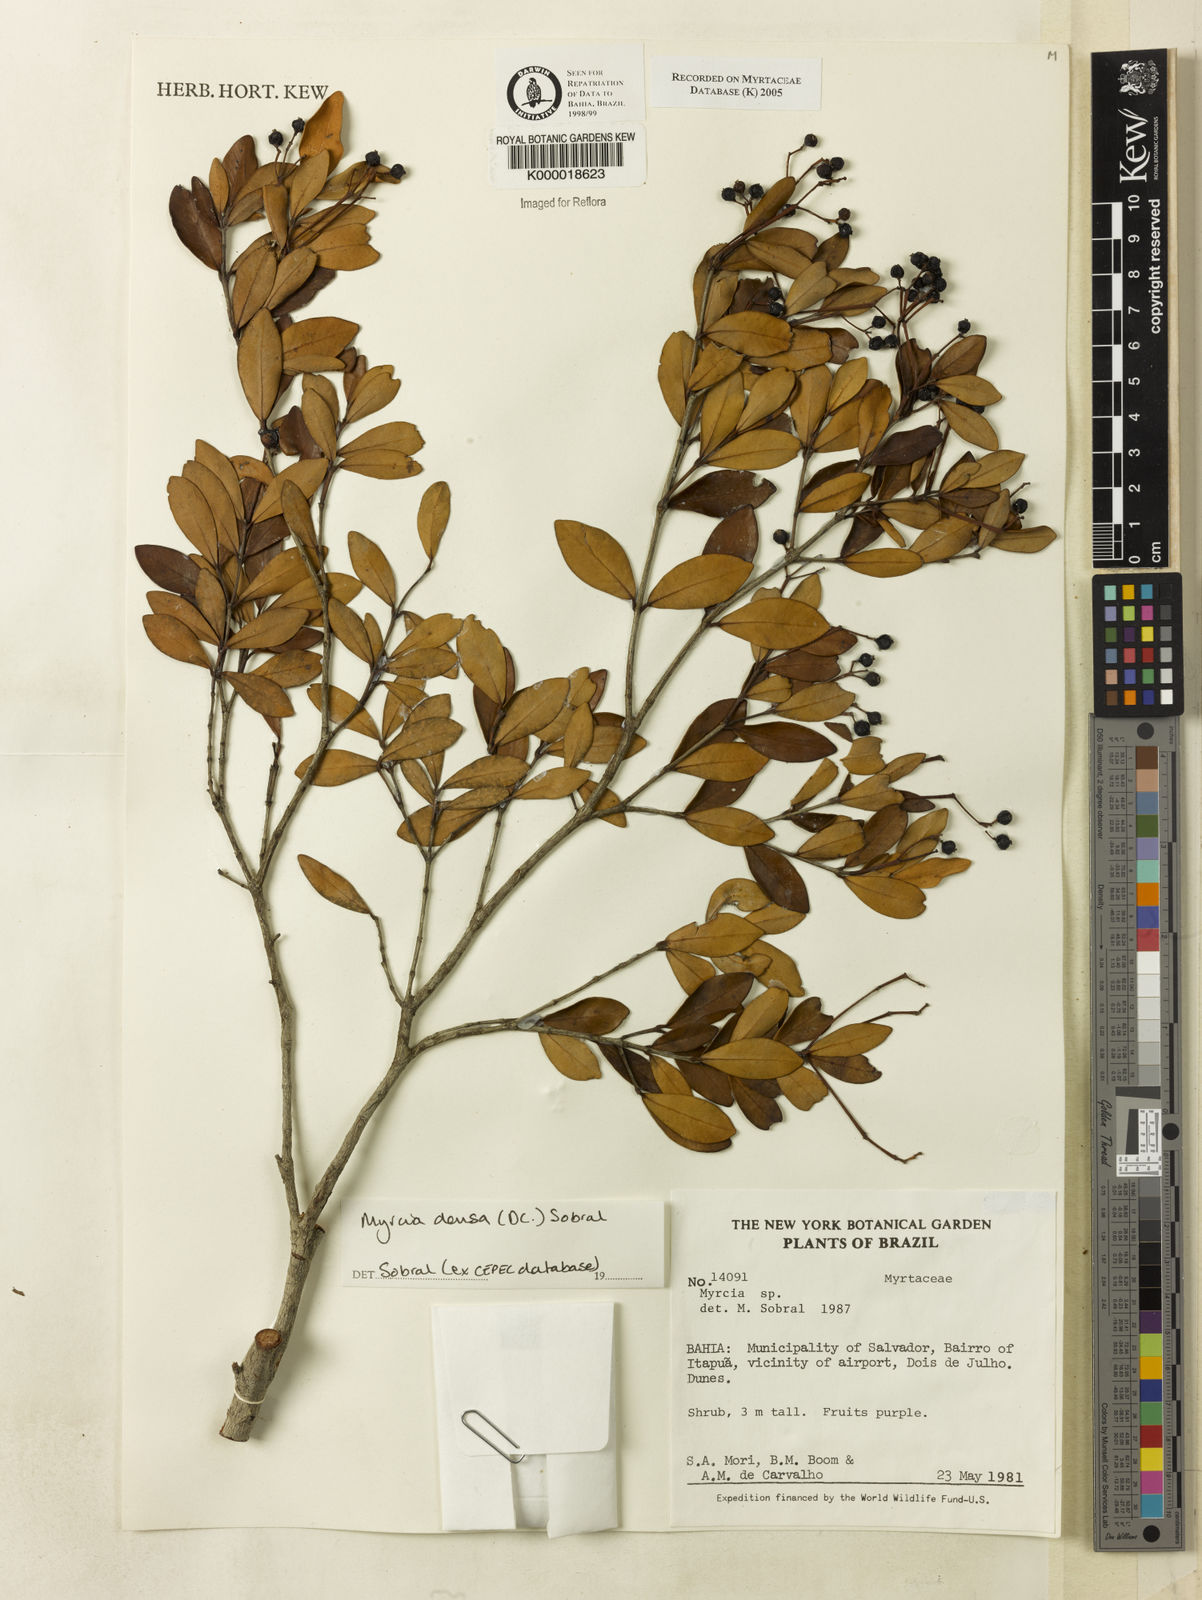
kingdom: Plantae
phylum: Tracheophyta
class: Magnoliopsida
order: Myrtales
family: Myrtaceae
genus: Myrcia
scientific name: Myrcia jacobinensis
